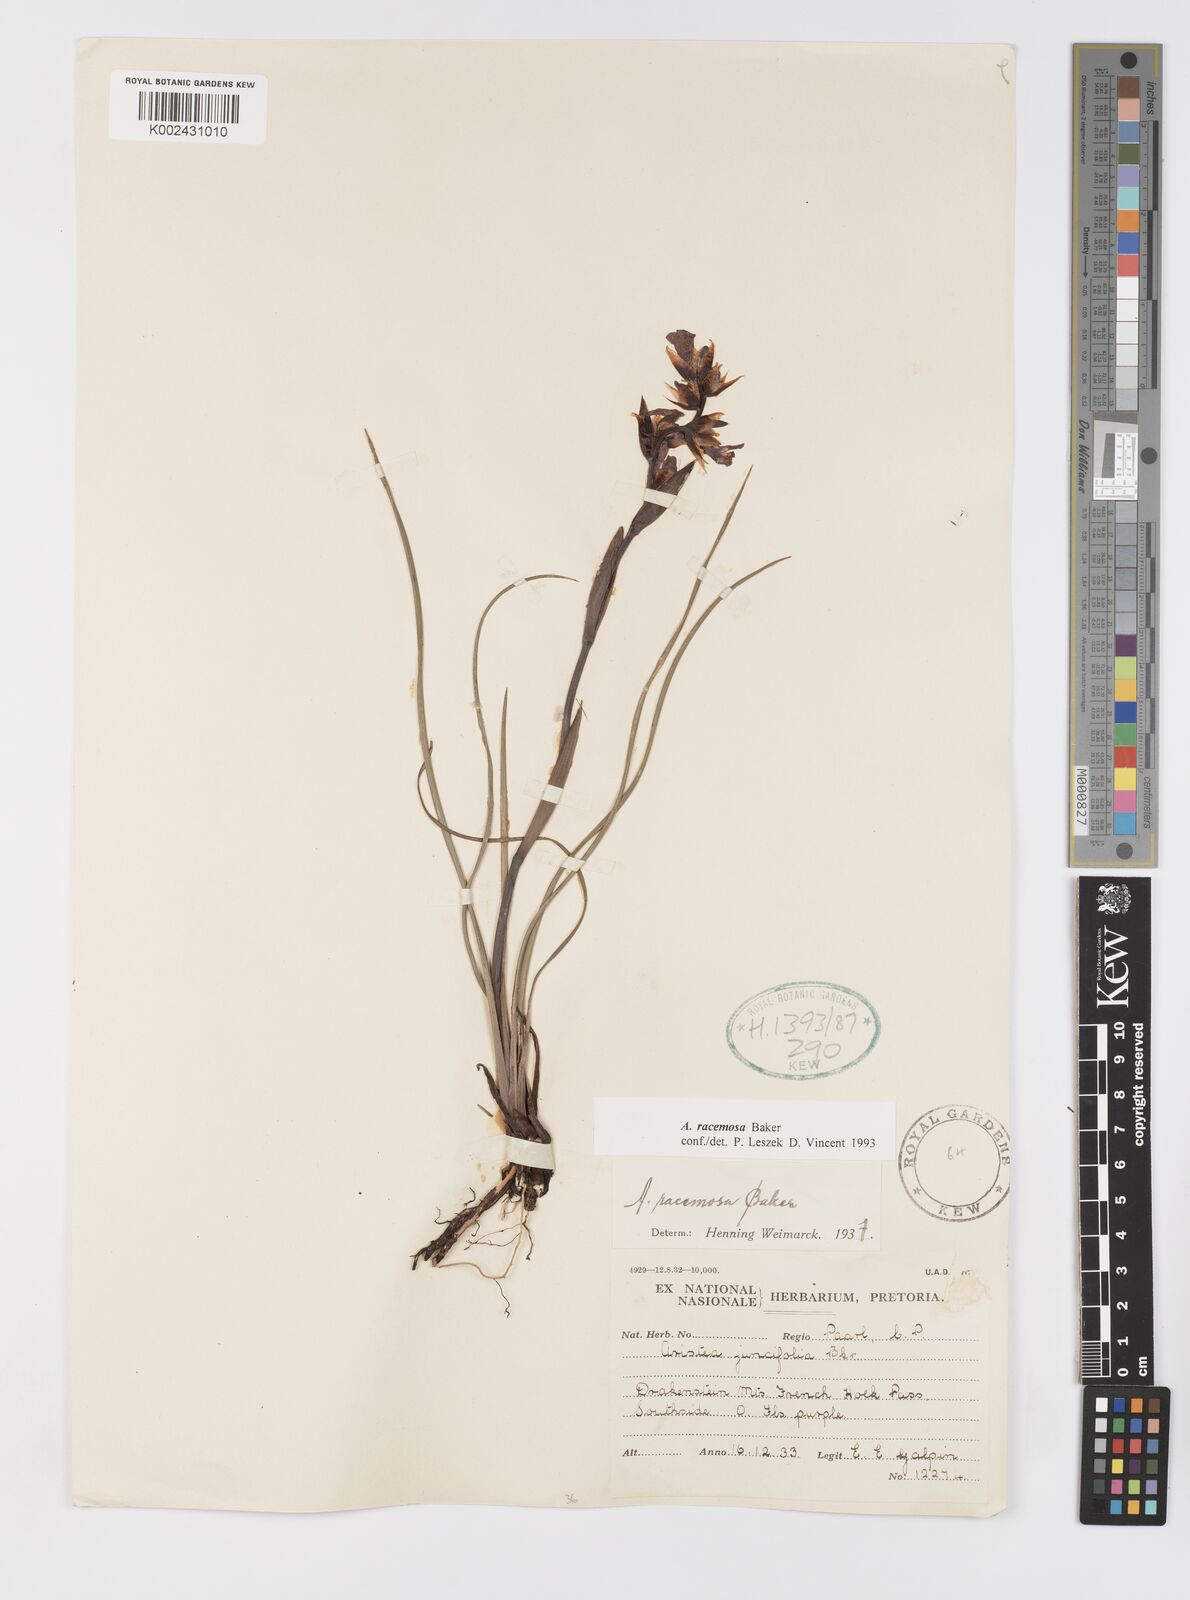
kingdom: Plantae
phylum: Tracheophyta
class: Liliopsida
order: Asparagales
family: Iridaceae
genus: Aristea
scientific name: Aristea racemosa
